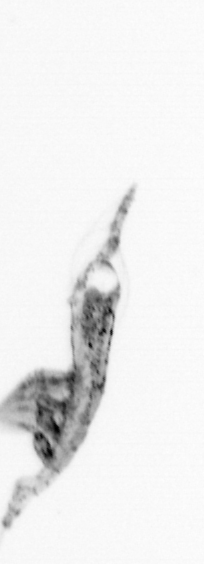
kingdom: Animalia
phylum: Arthropoda
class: Copepoda
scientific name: Copepoda
